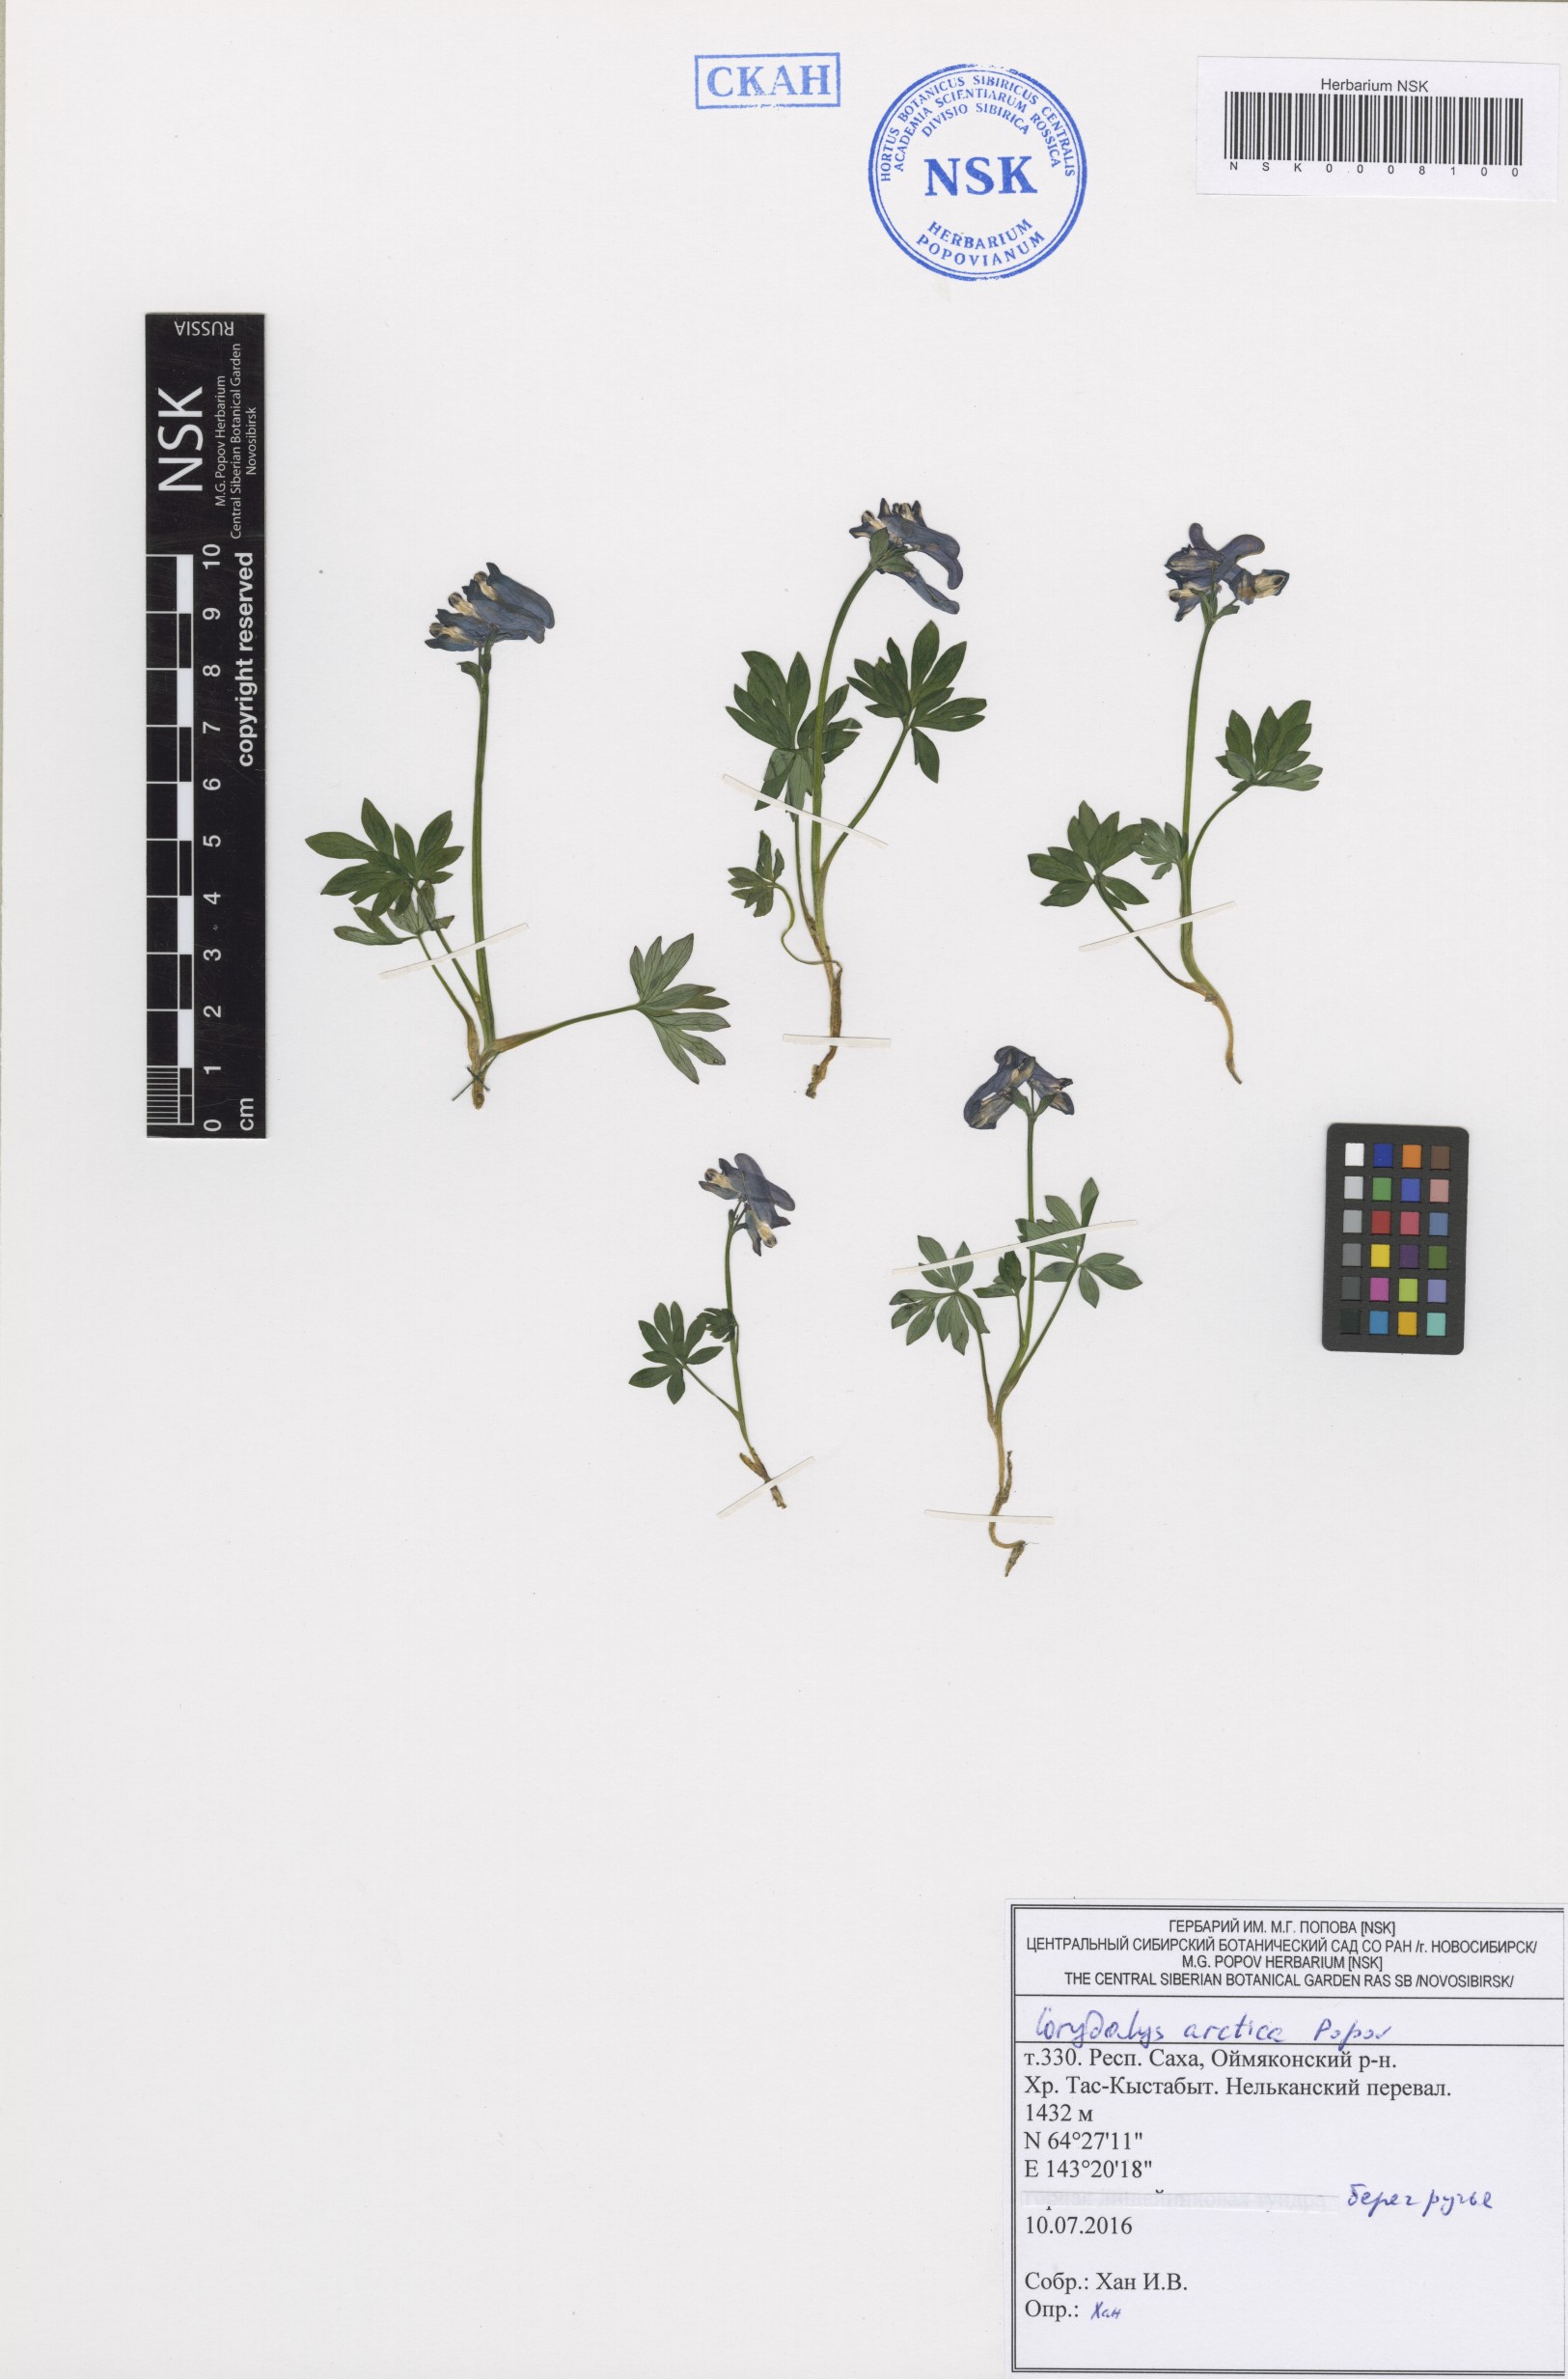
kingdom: Plantae
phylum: Tracheophyta
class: Magnoliopsida
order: Ranunculales
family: Papaveraceae
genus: Corydalis
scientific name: Corydalis arctica
